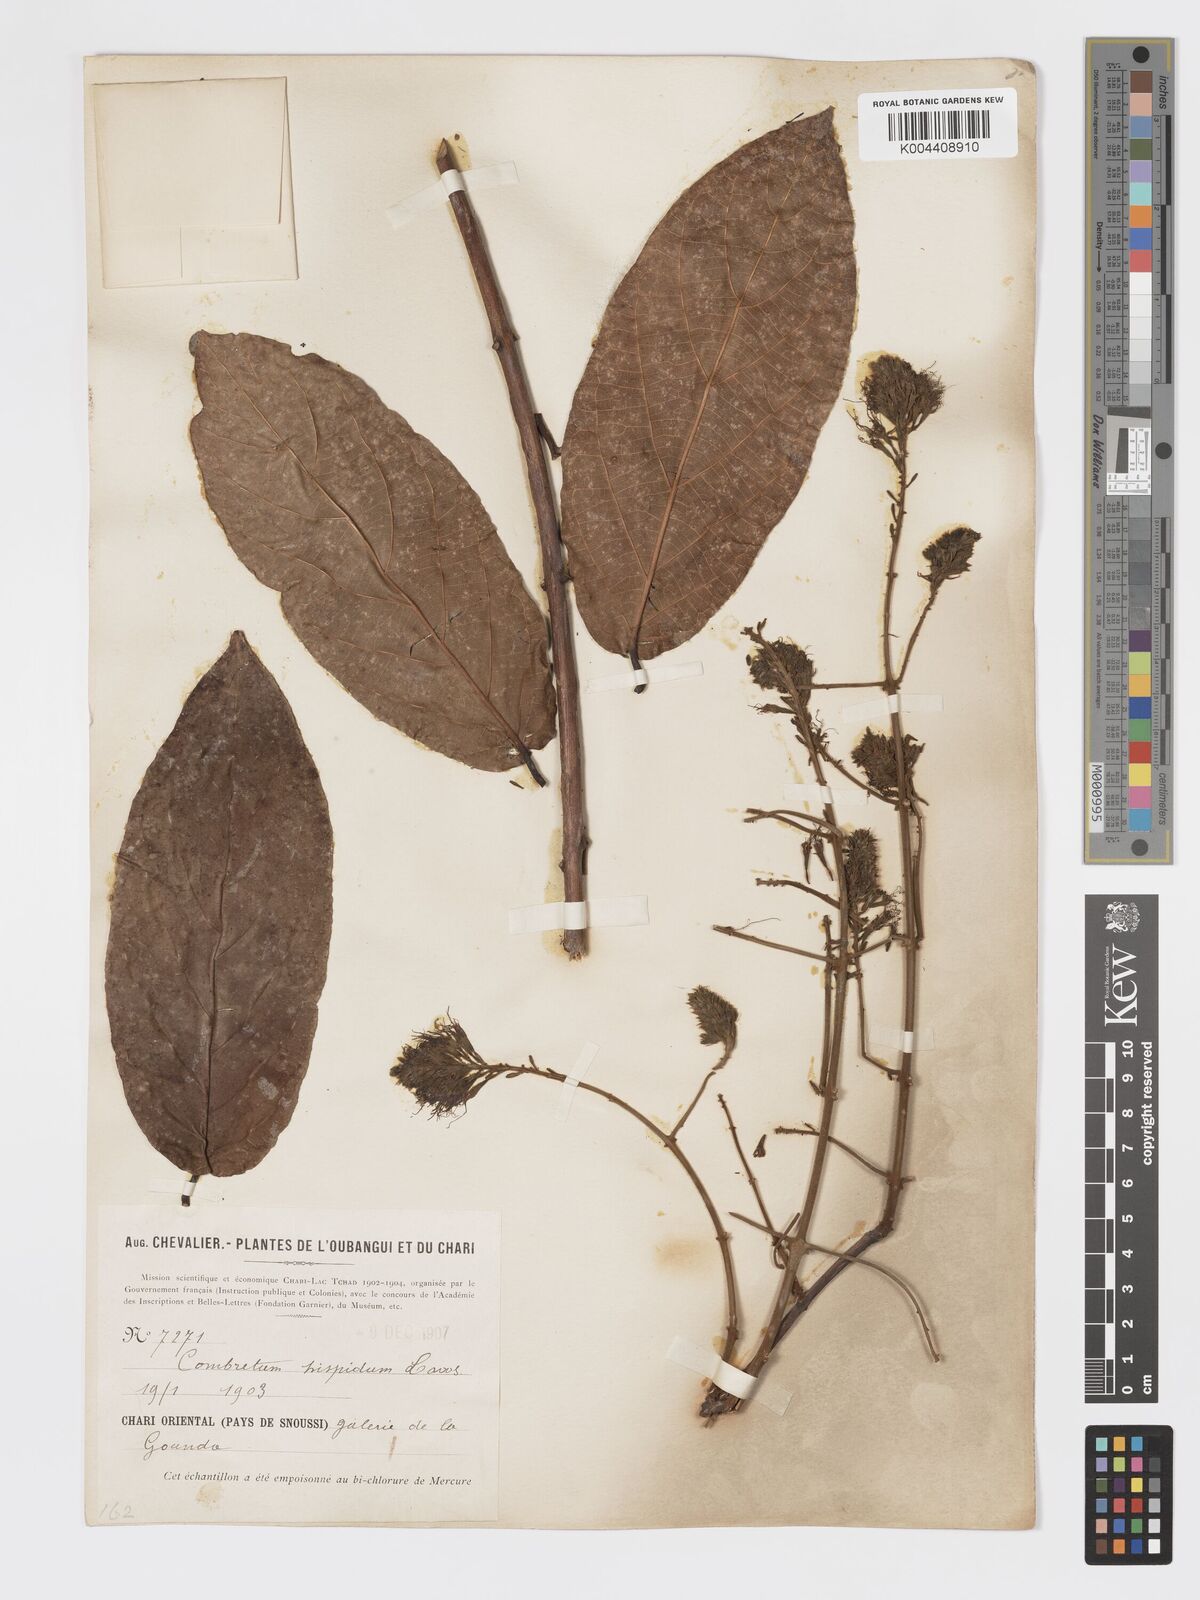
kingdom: Plantae
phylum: Tracheophyta
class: Magnoliopsida
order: Myrtales
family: Combretaceae
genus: Combretum
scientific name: Combretum comosum
